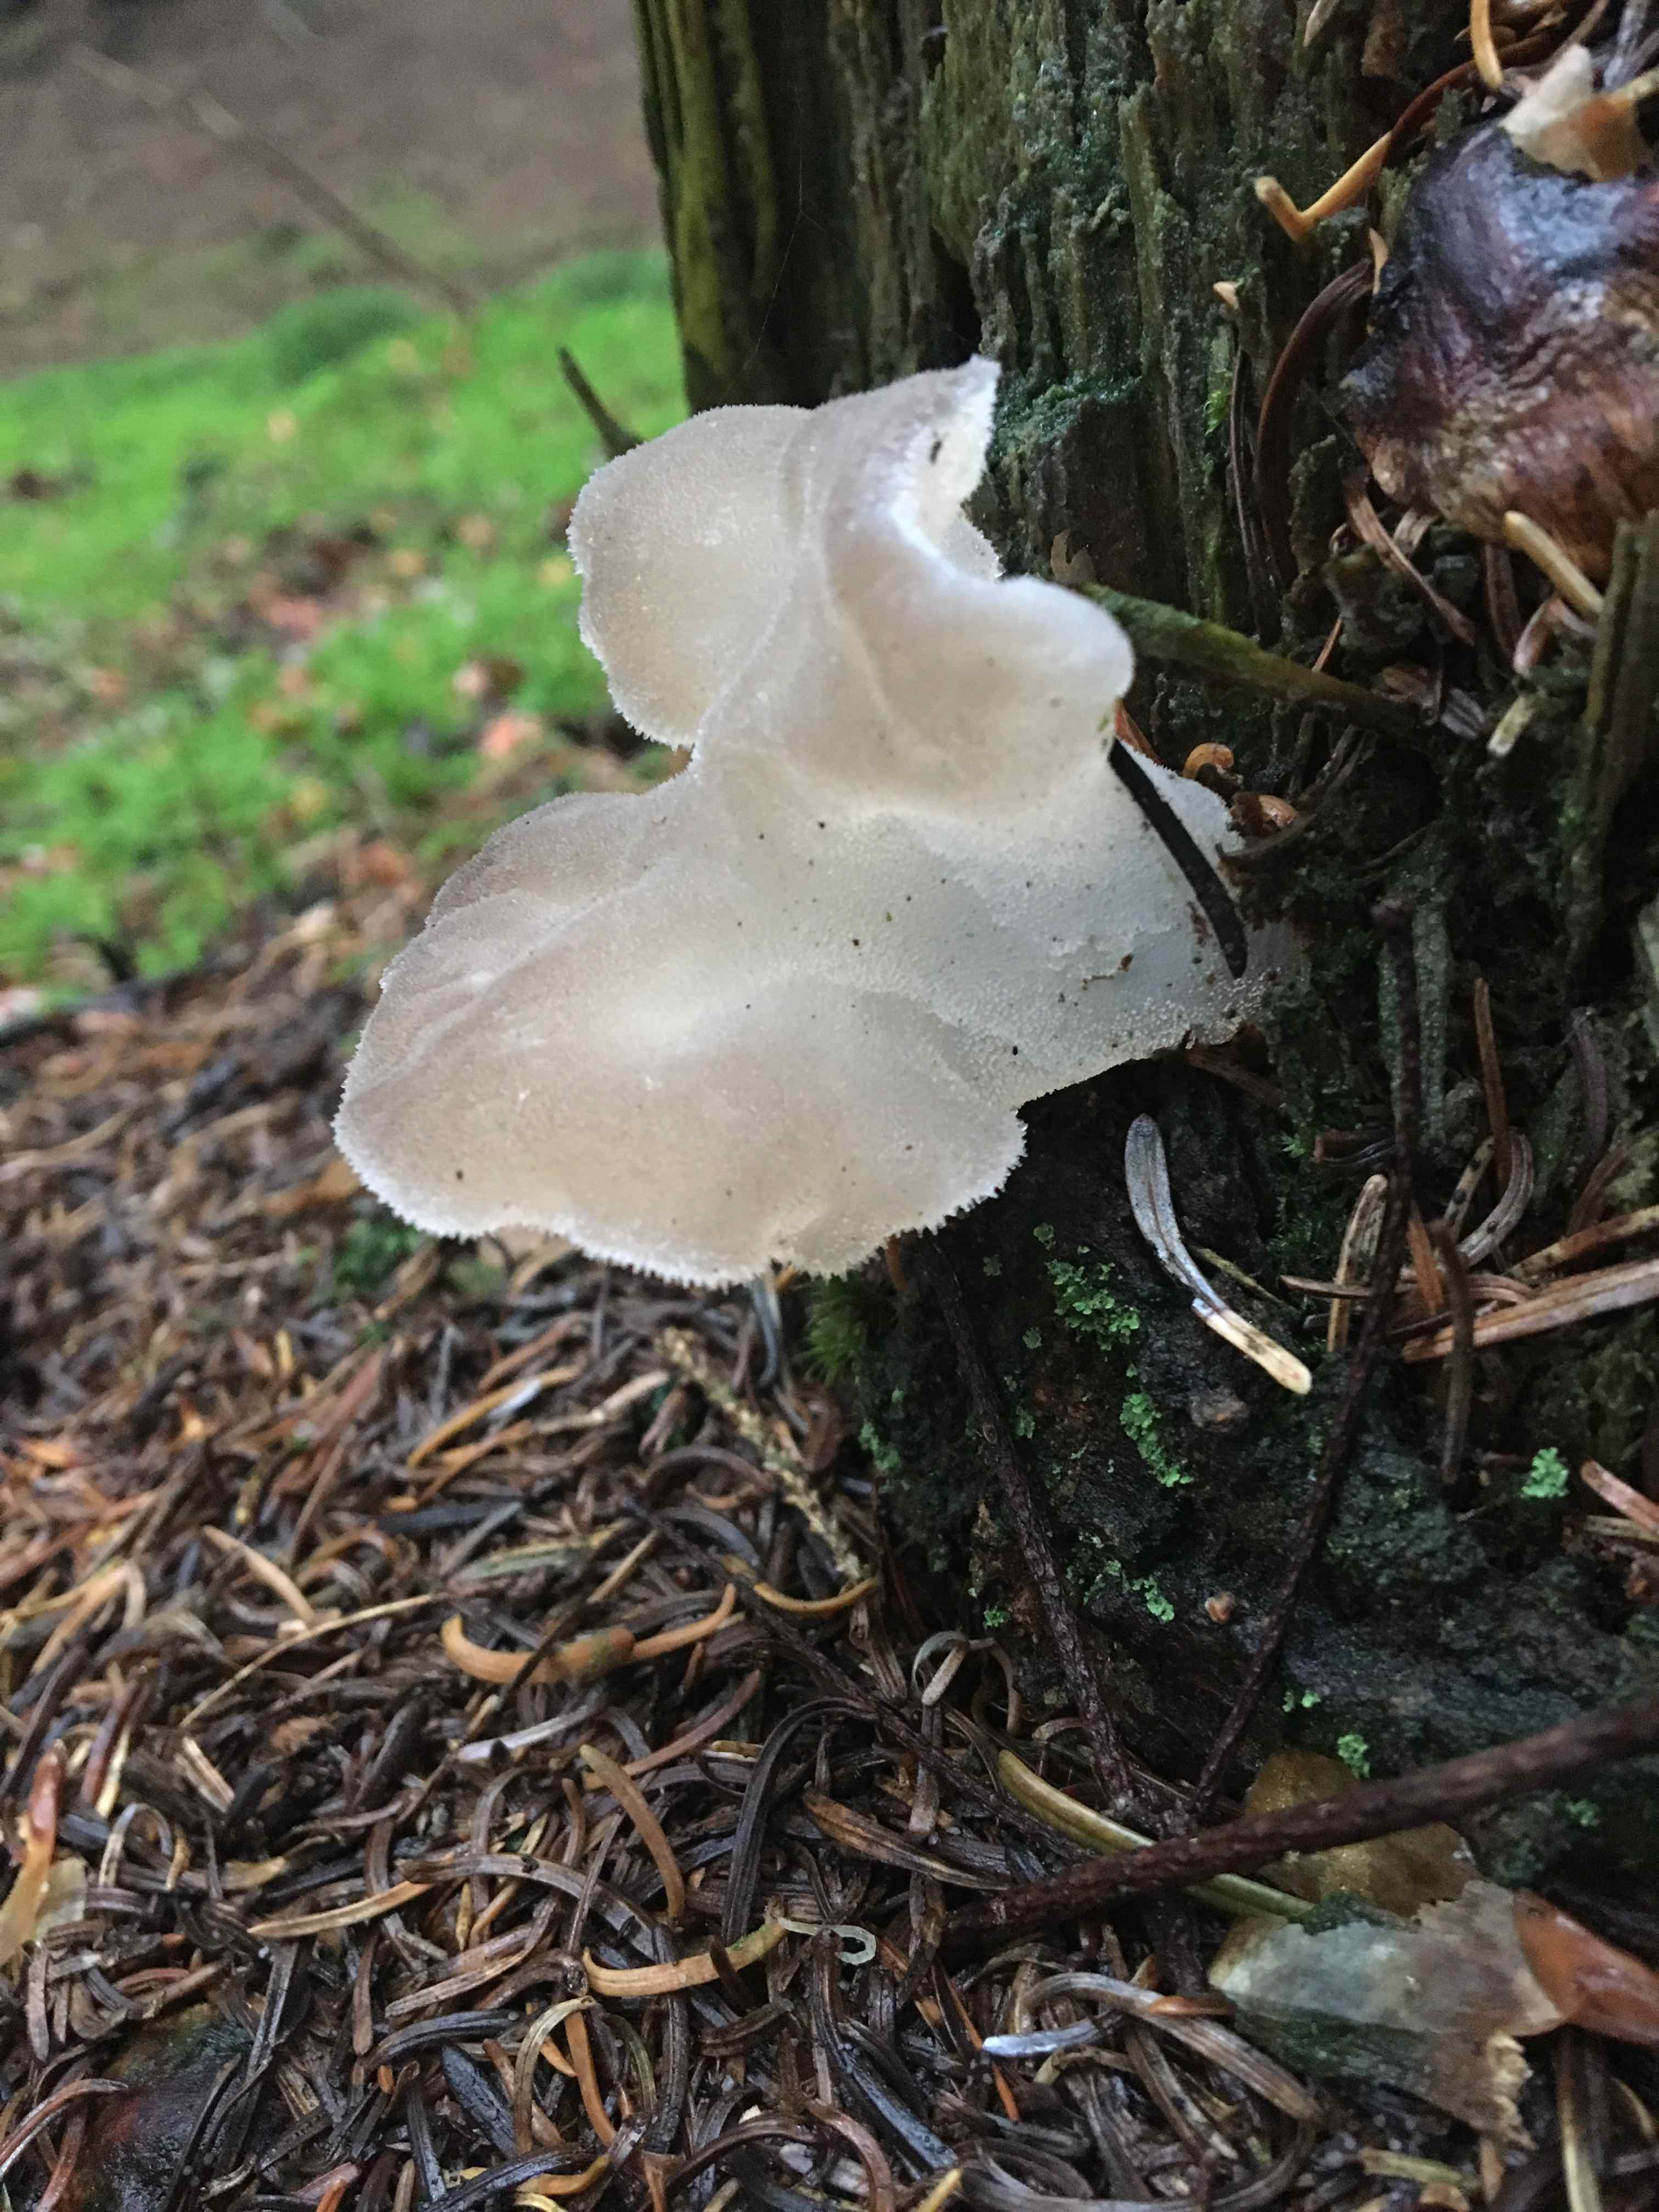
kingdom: Fungi
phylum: Basidiomycota
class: Agaricomycetes
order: Auriculariales
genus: Pseudohydnum
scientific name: Pseudohydnum gelatinosum
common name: bævretand
